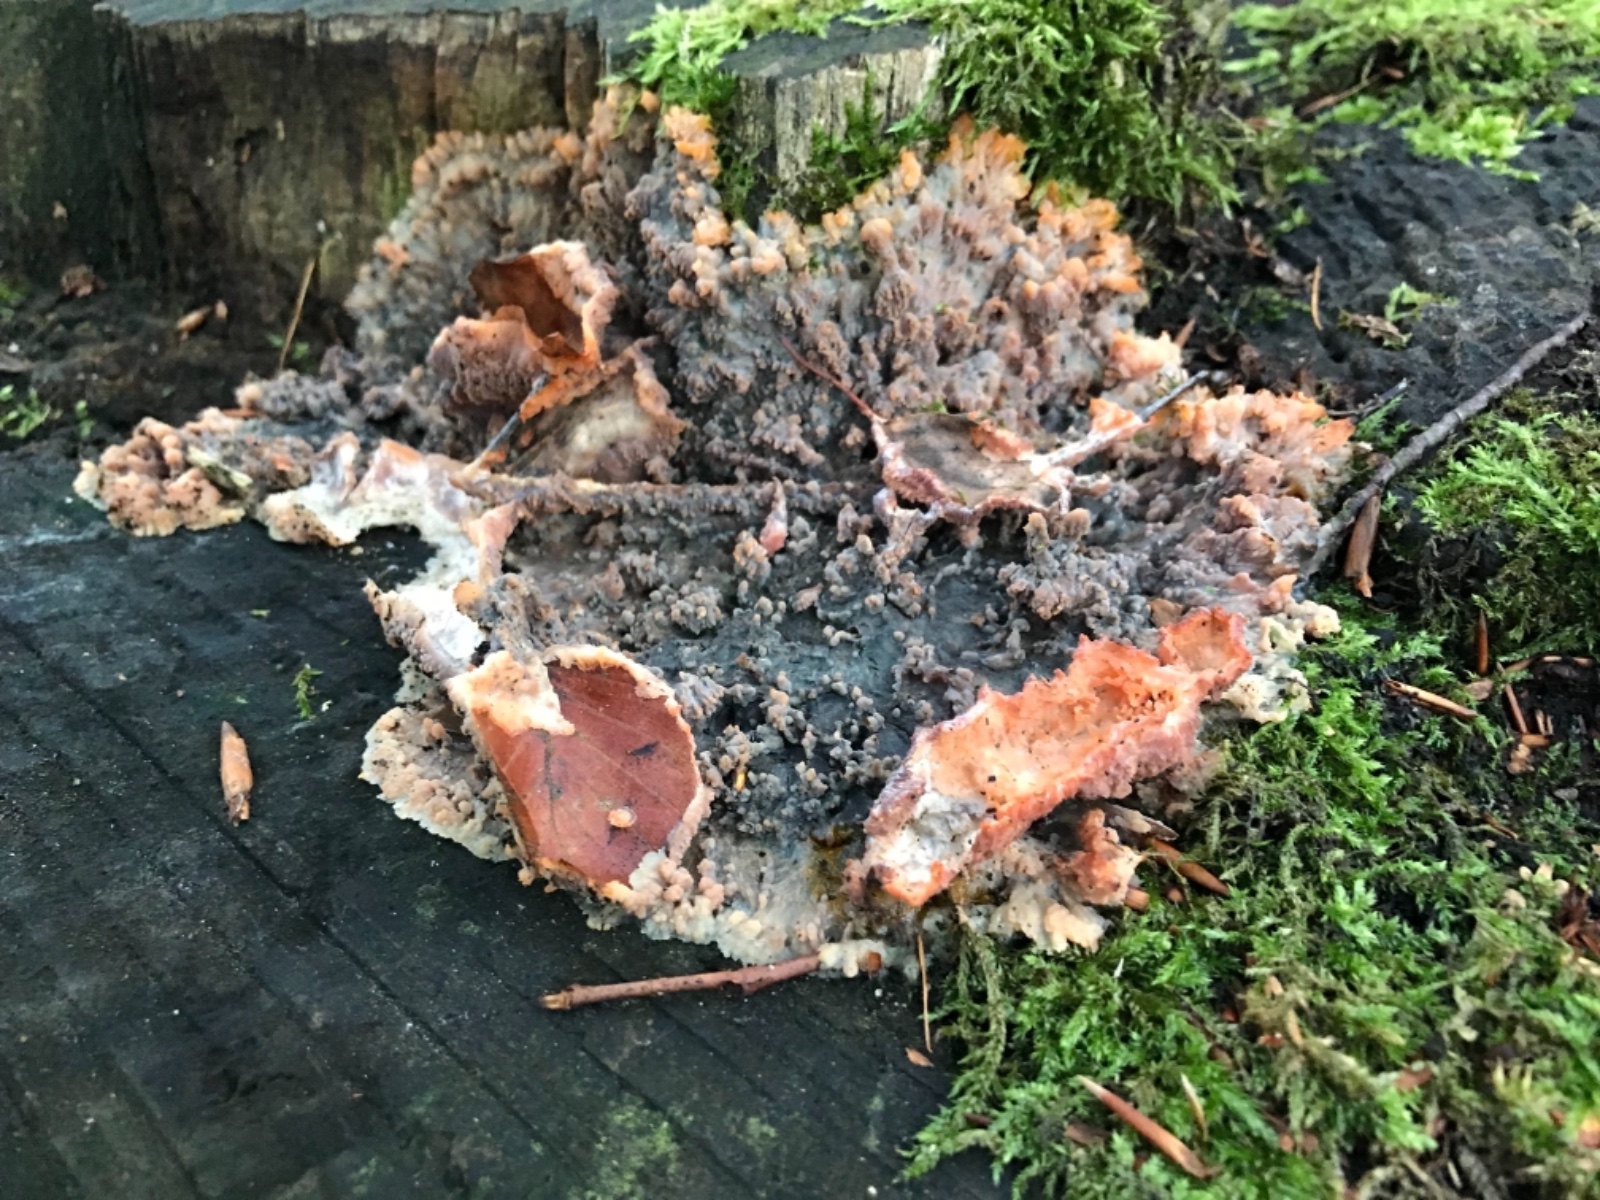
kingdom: Fungi
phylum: Basidiomycota
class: Agaricomycetes
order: Polyporales
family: Meruliaceae
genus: Phlebia
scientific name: Phlebia radiata
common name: stråle-åresvamp
